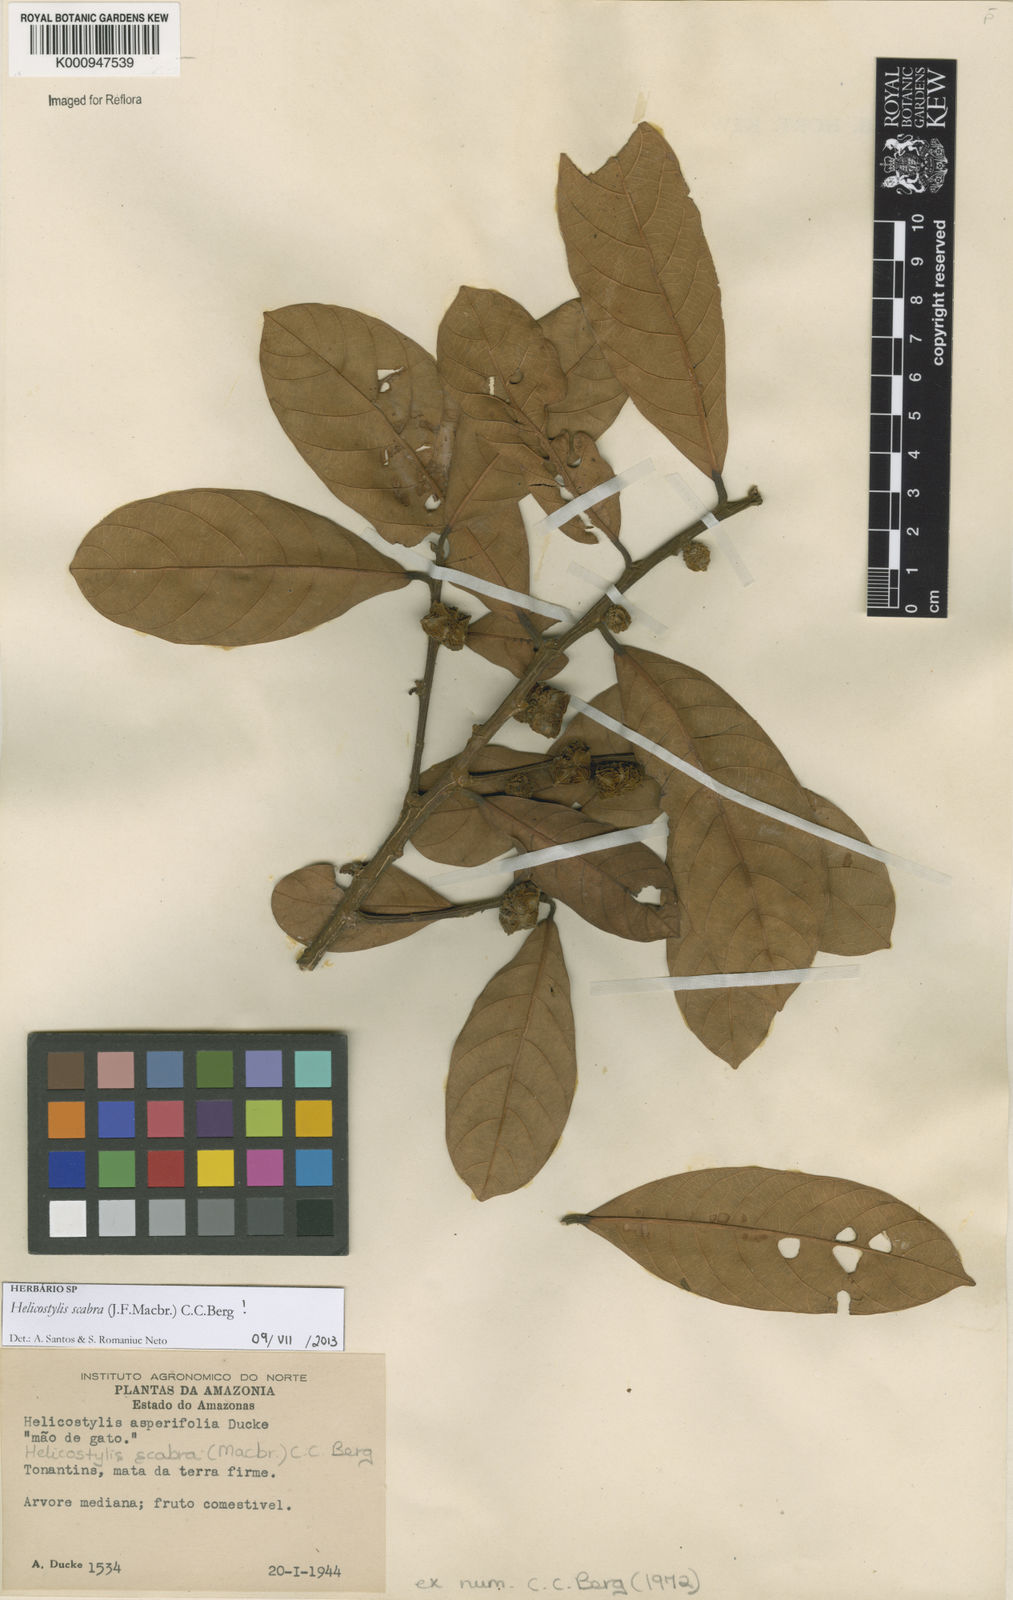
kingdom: Plantae
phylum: Tracheophyta
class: Magnoliopsida
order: Rosales
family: Moraceae
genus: Helicostylis
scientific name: Helicostylis scabra
